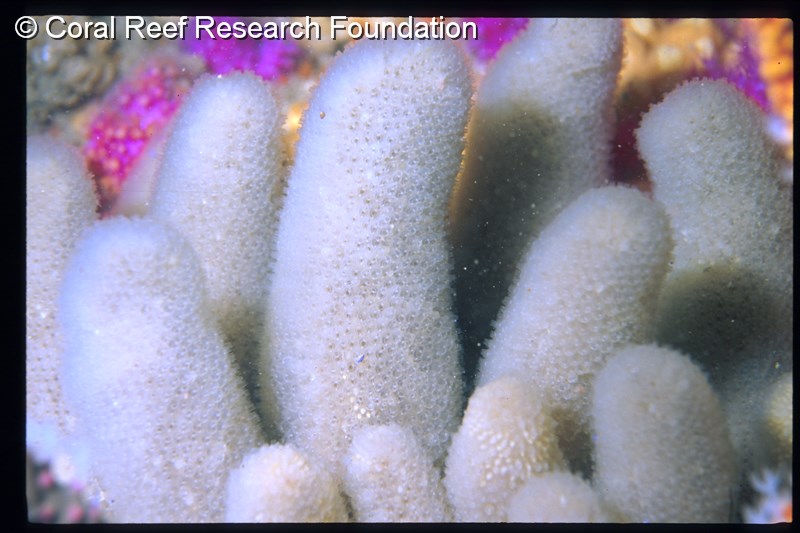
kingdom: Animalia
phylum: Chordata
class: Ascidiacea
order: Aplousobranchia
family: Pseudodistomidae
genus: Pseudodistoma
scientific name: Pseudodistoma
